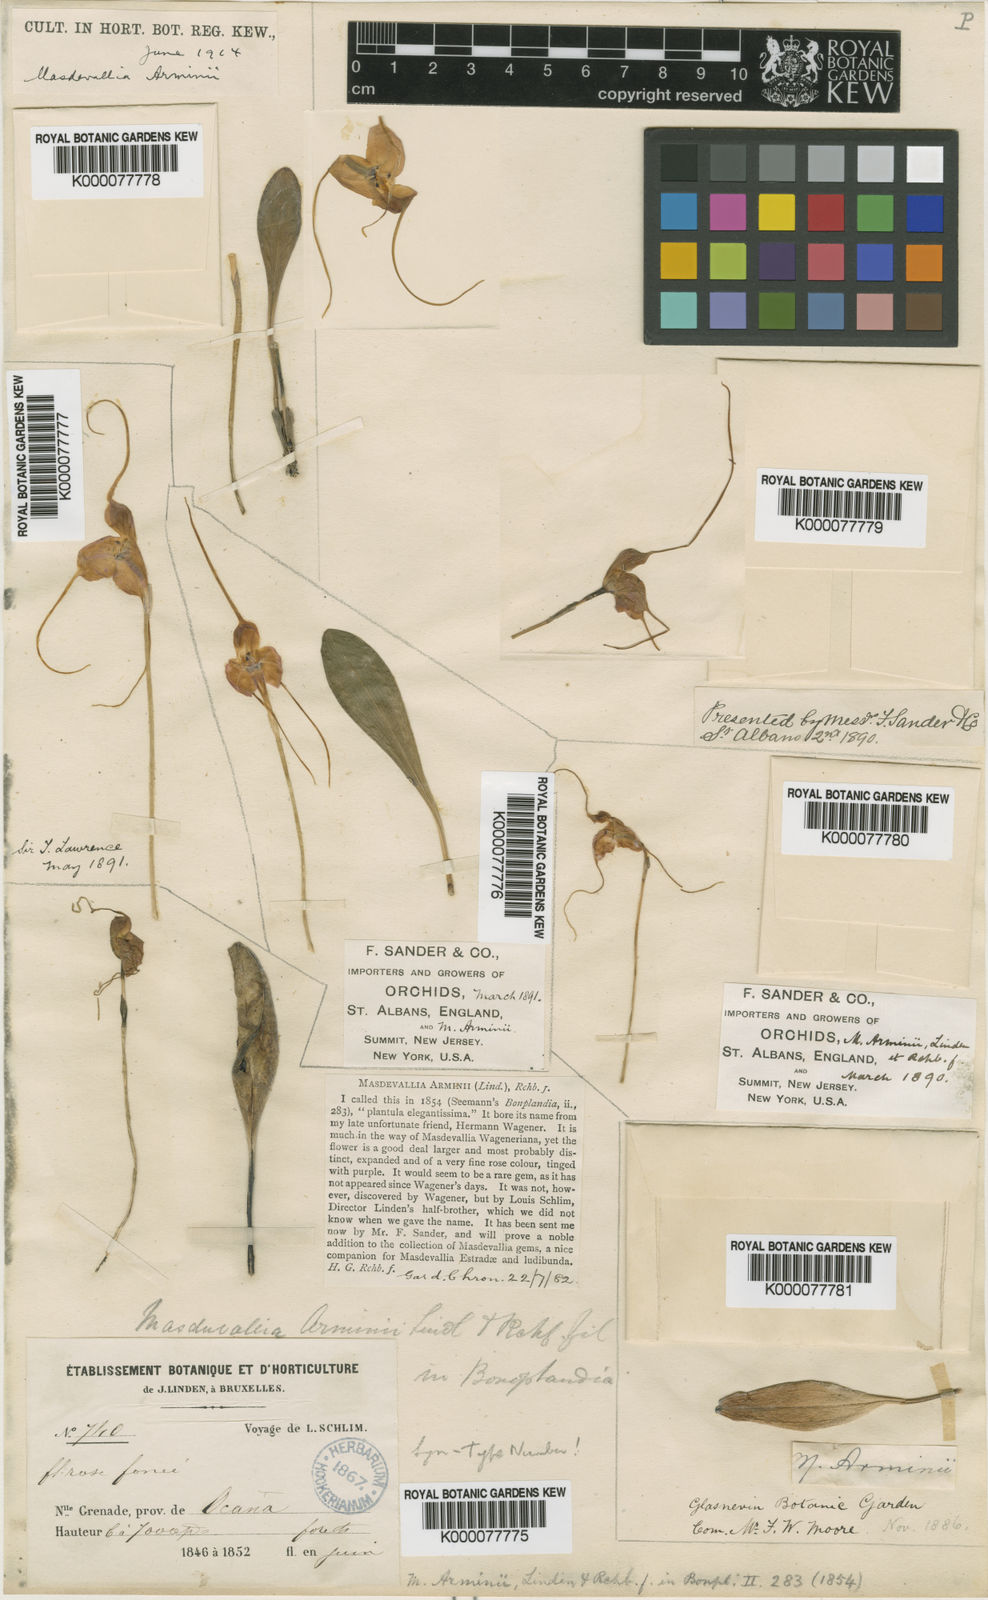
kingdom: Plantae
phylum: Tracheophyta
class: Liliopsida
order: Asparagales
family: Orchidaceae
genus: Masdevallia
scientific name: Masdevallia arminii
